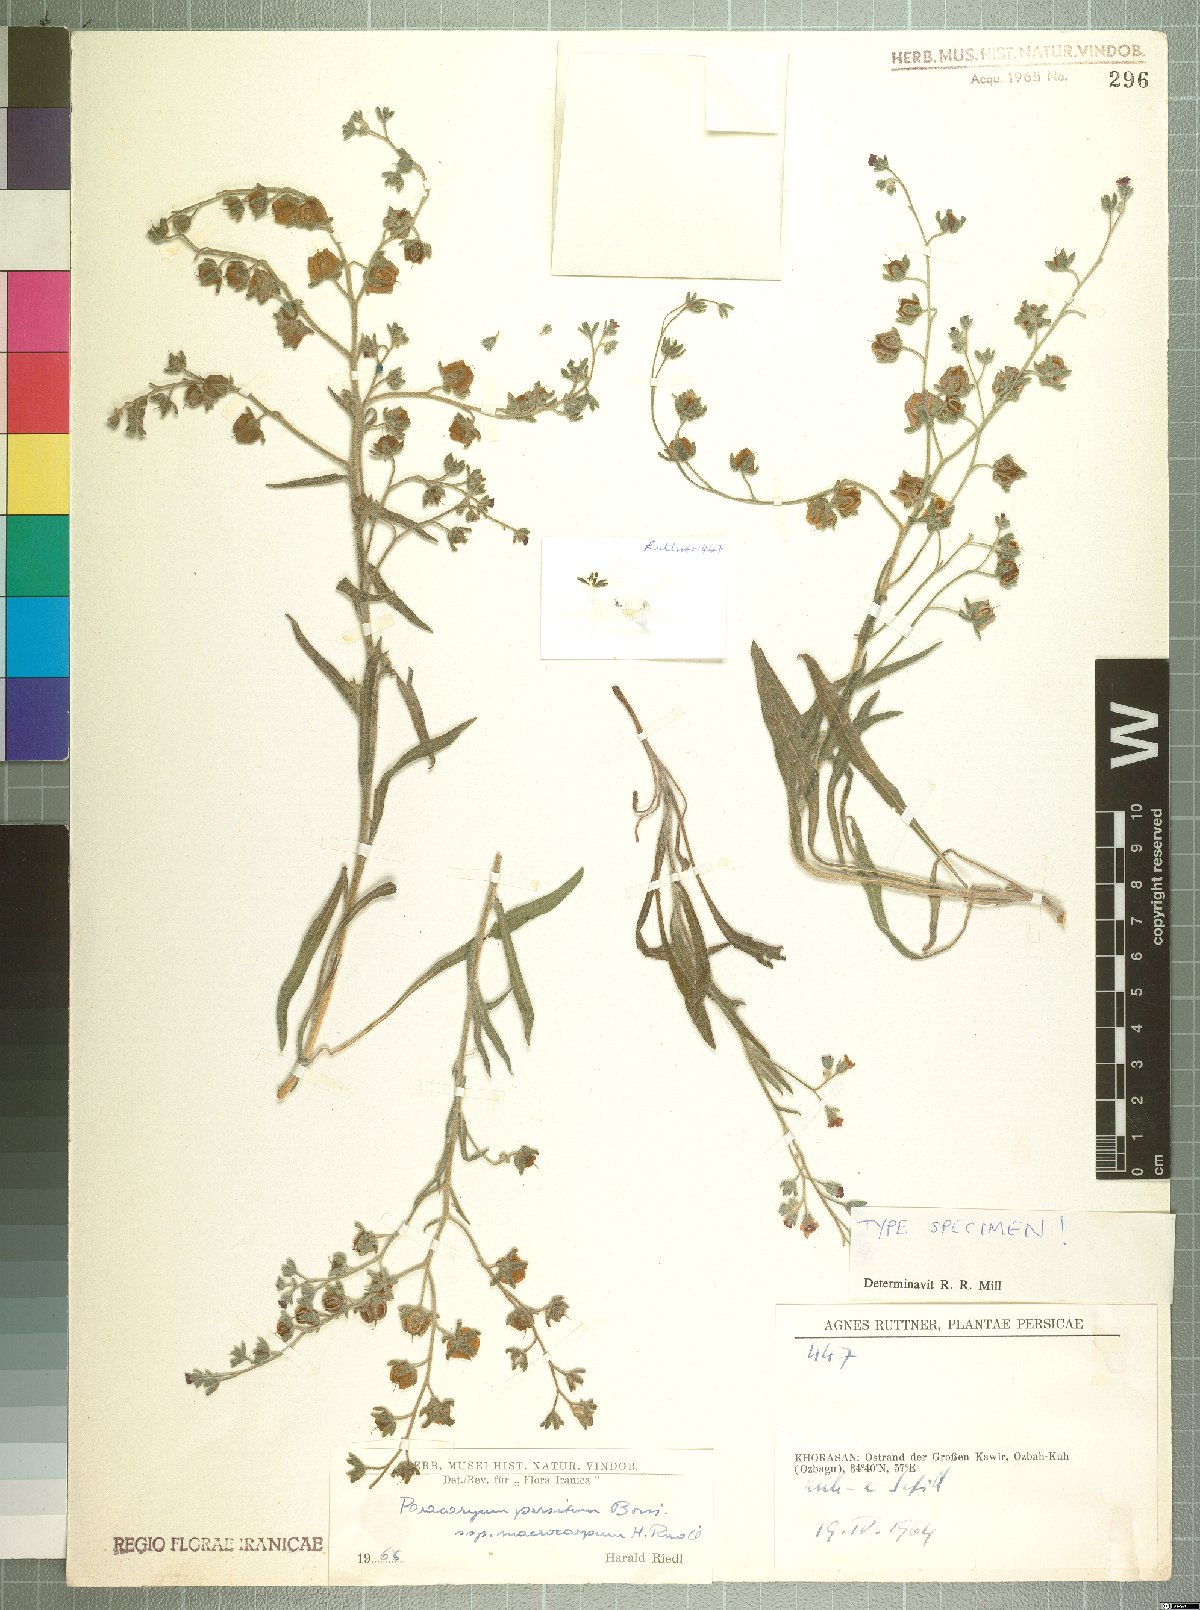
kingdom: Plantae
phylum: Tracheophyta
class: Magnoliopsida
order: Boraginales
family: Boraginaceae
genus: Paracaryum
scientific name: Paracaryum persicum
